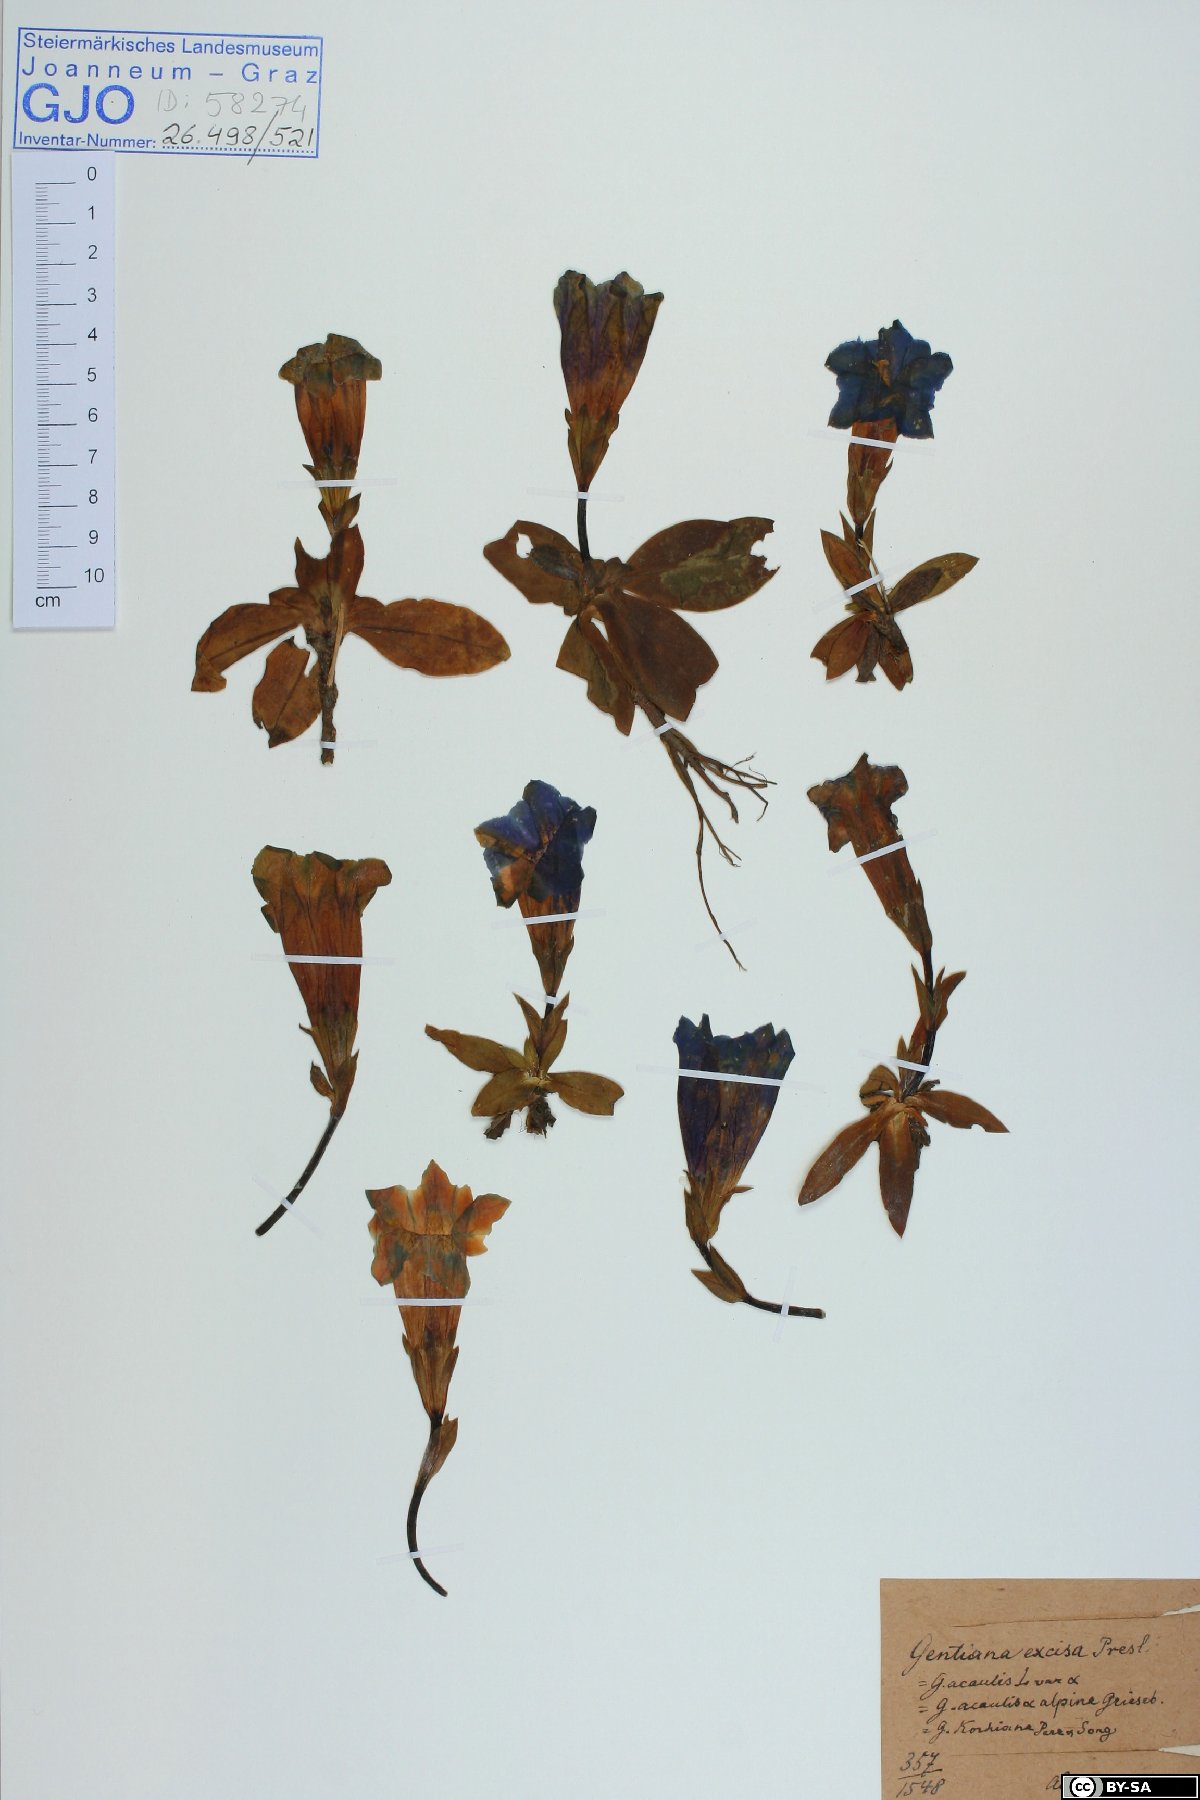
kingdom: Plantae
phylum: Tracheophyta
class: Magnoliopsida
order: Gentianales
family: Gentianaceae
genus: Gentiana
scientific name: Gentiana clusii
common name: Trumpet gentian
